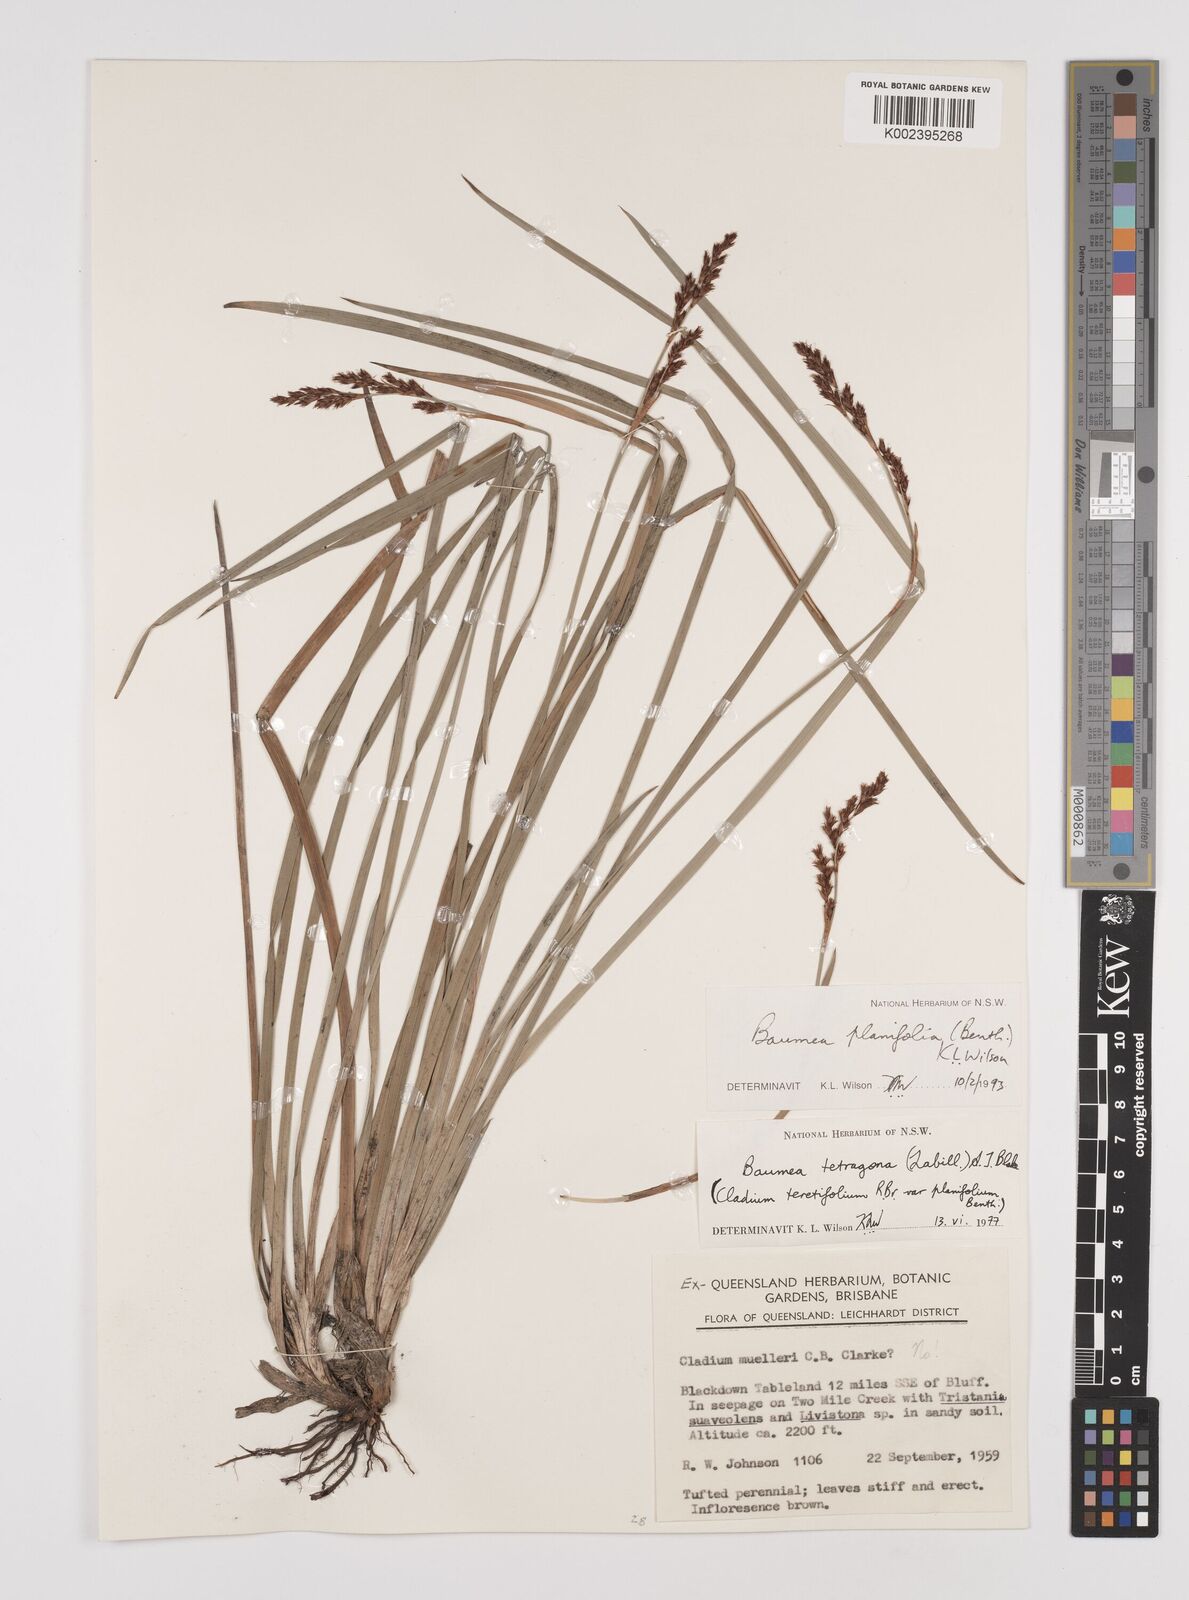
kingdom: Plantae
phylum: Tracheophyta
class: Liliopsida
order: Poales
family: Cyperaceae
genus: Machaerina
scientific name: Machaerina teretifolia
